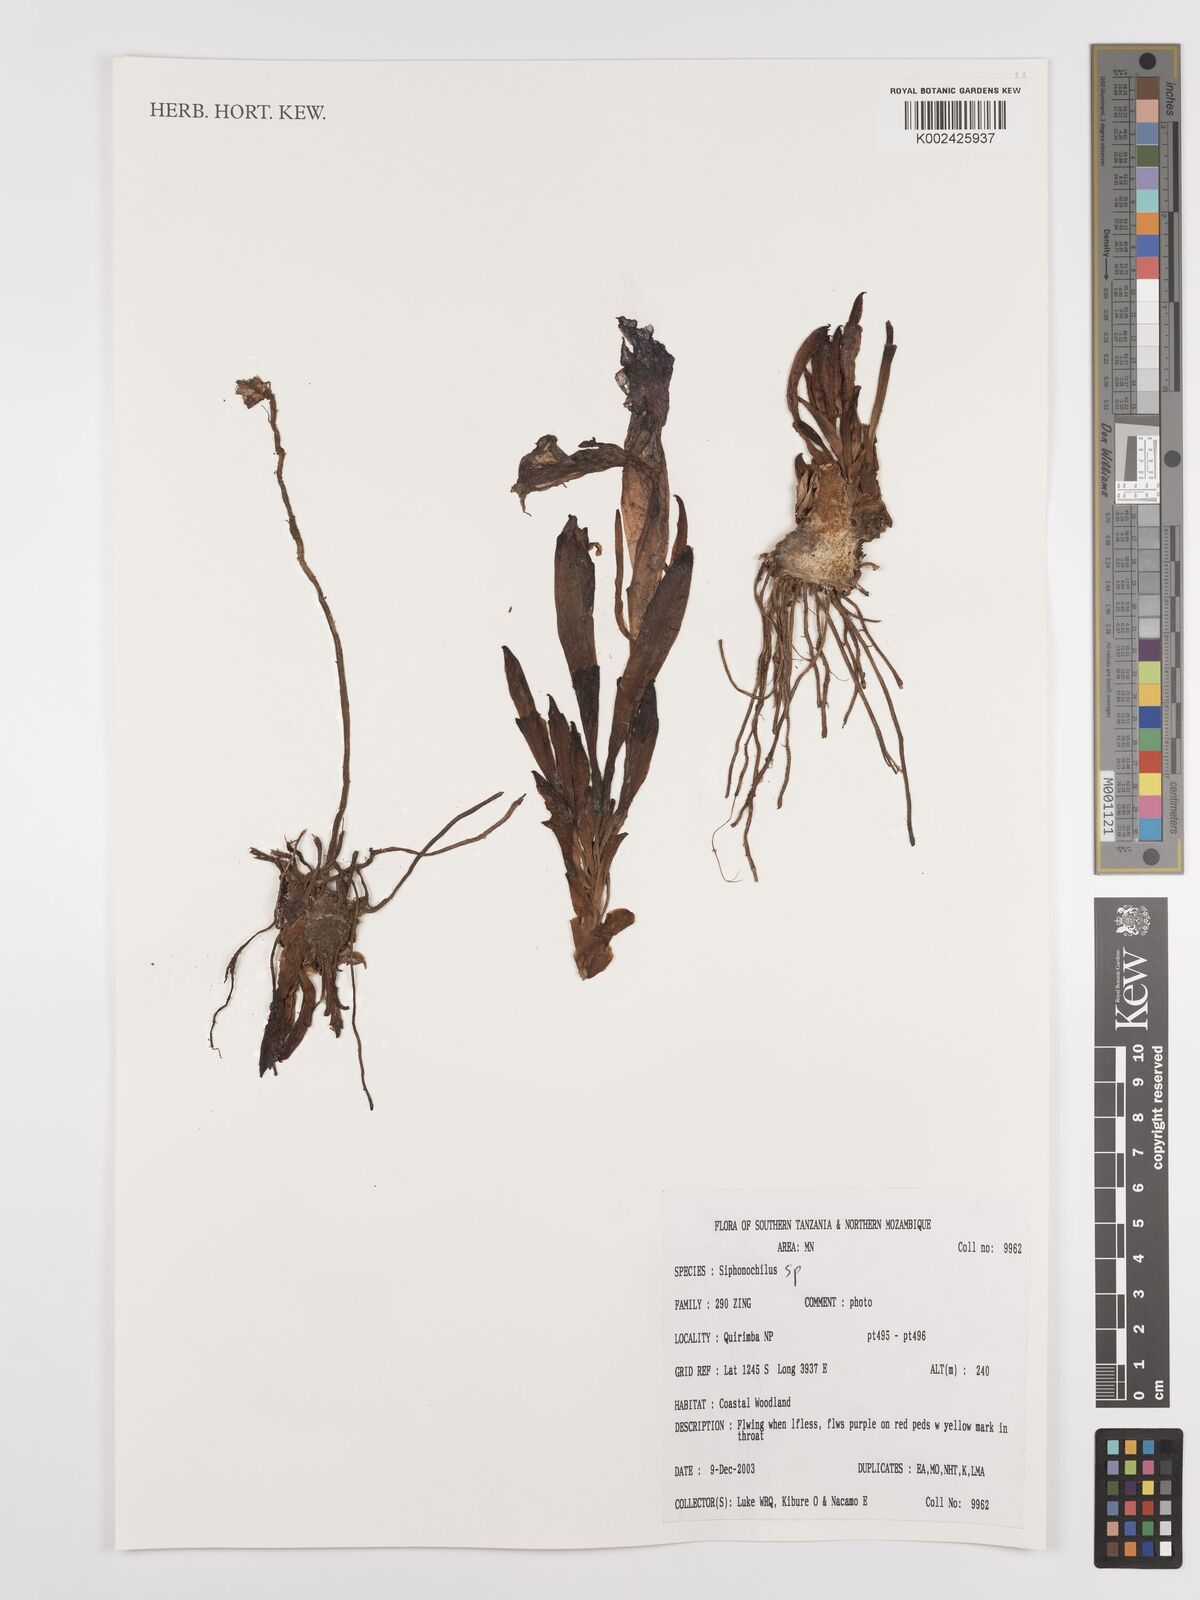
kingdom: Plantae
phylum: Tracheophyta
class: Liliopsida
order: Zingiberales
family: Zingiberaceae
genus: Siphonochilus
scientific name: Siphonochilus aethiopicus
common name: African-ginger
